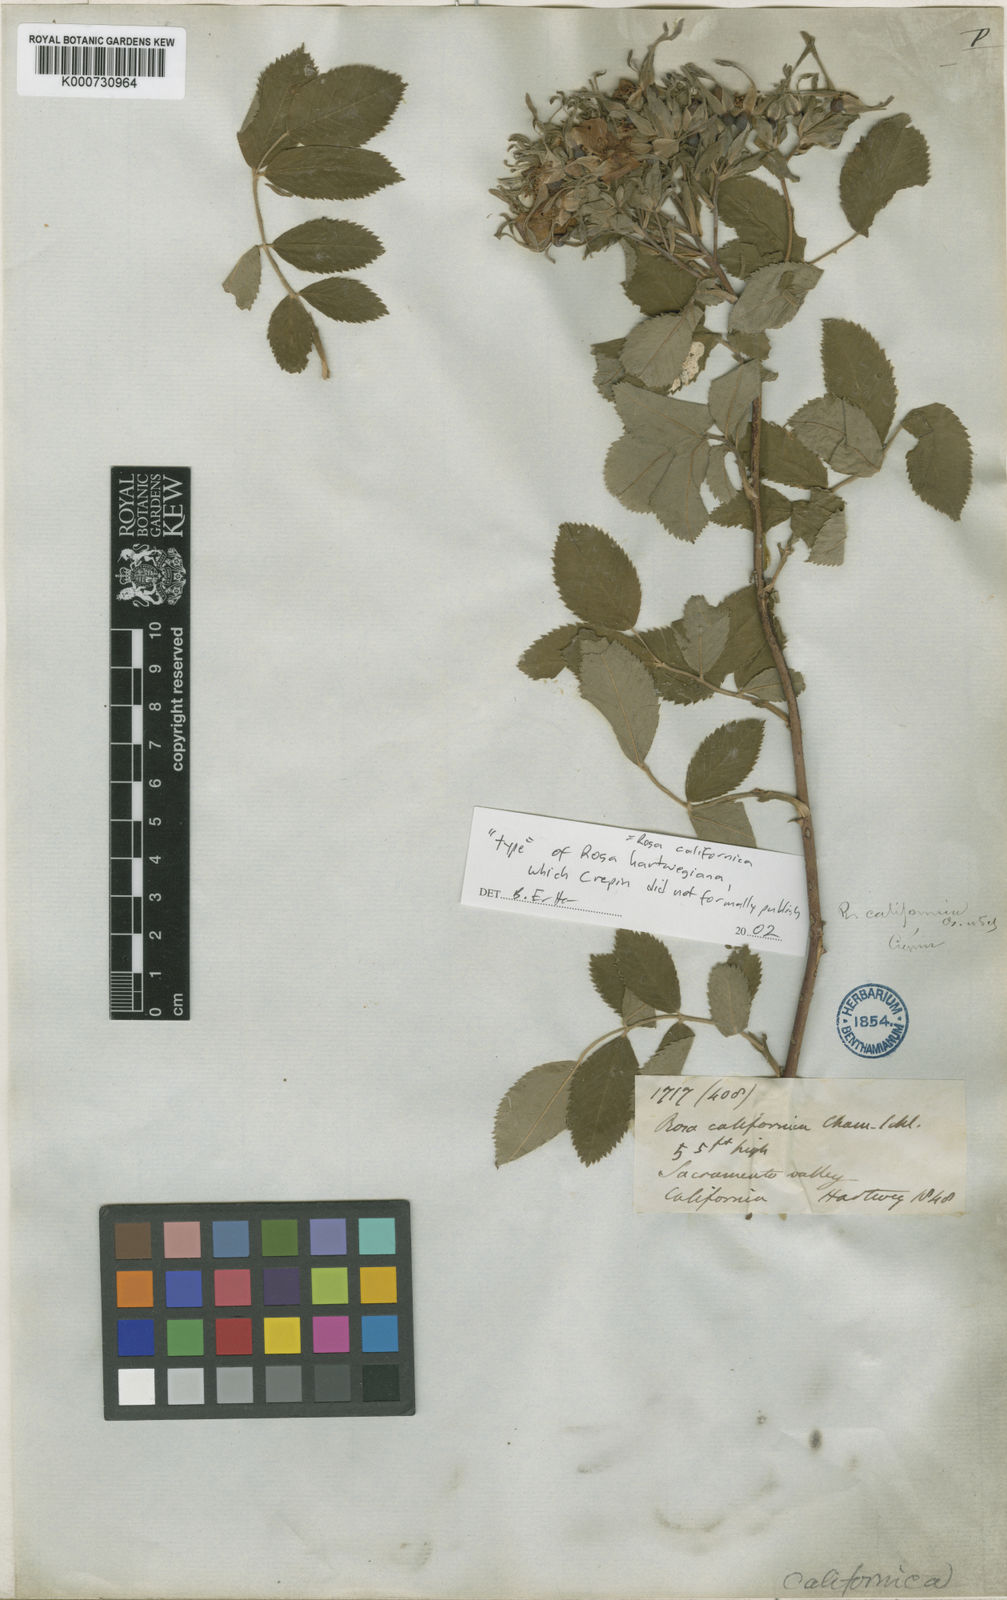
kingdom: Plantae
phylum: Tracheophyta
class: Magnoliopsida
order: Rosales
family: Rosaceae
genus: Rosa
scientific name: Rosa californica
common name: California rose
